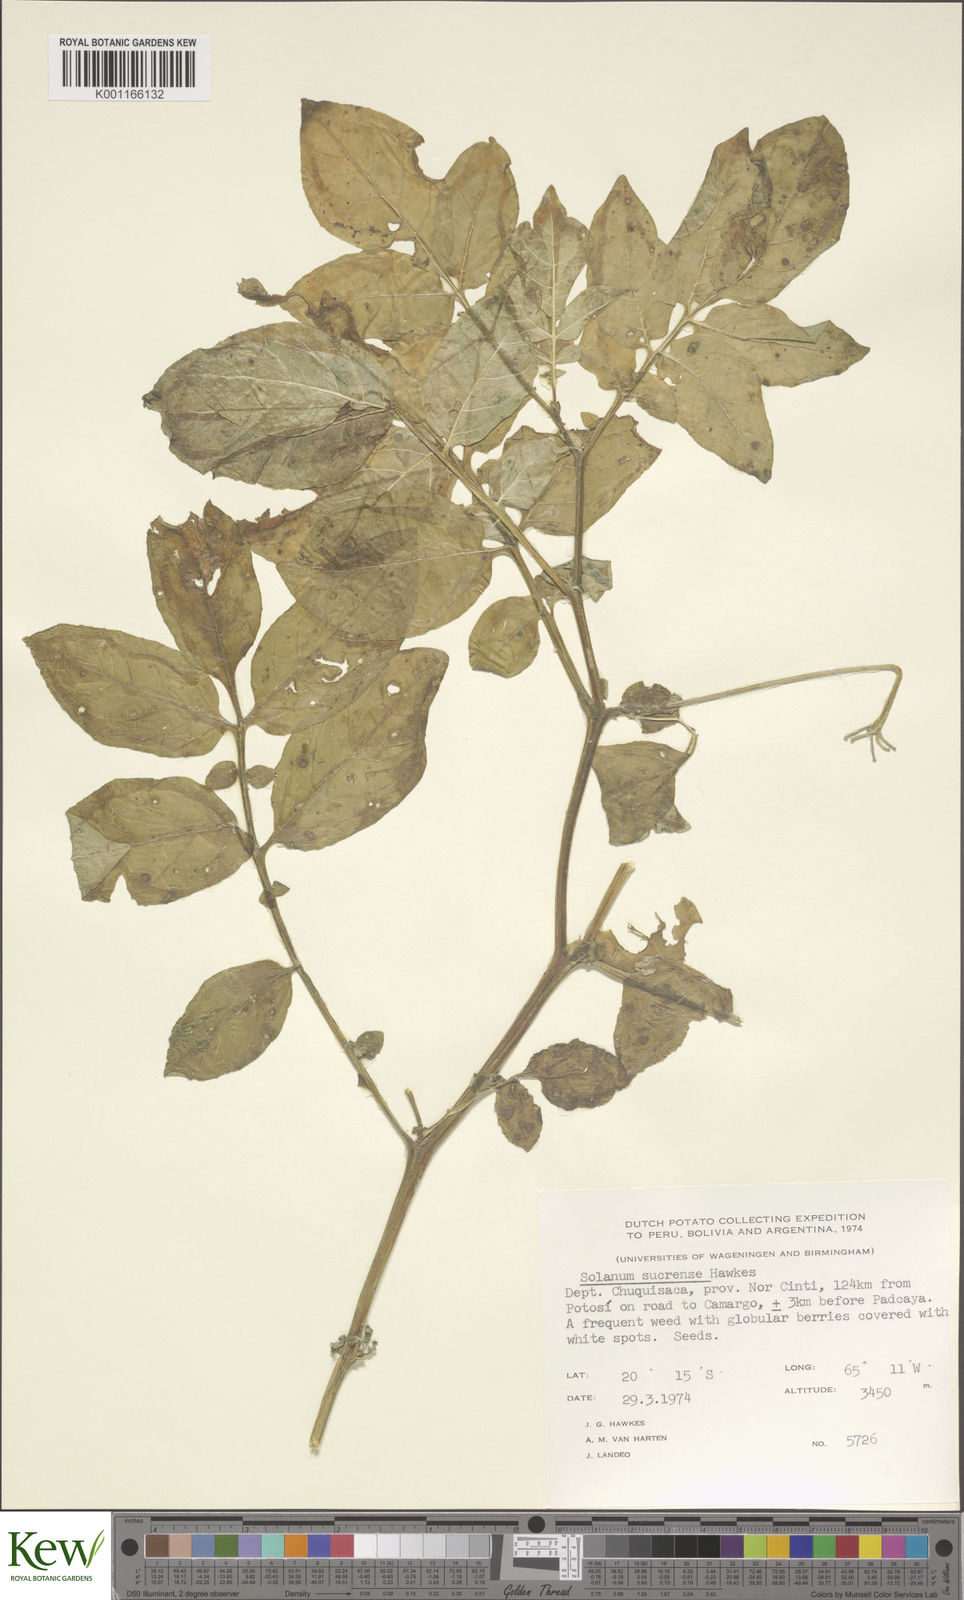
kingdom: Plantae
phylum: Tracheophyta
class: Magnoliopsida
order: Solanales
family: Solanaceae
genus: Solanum
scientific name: Solanum brevicaule
